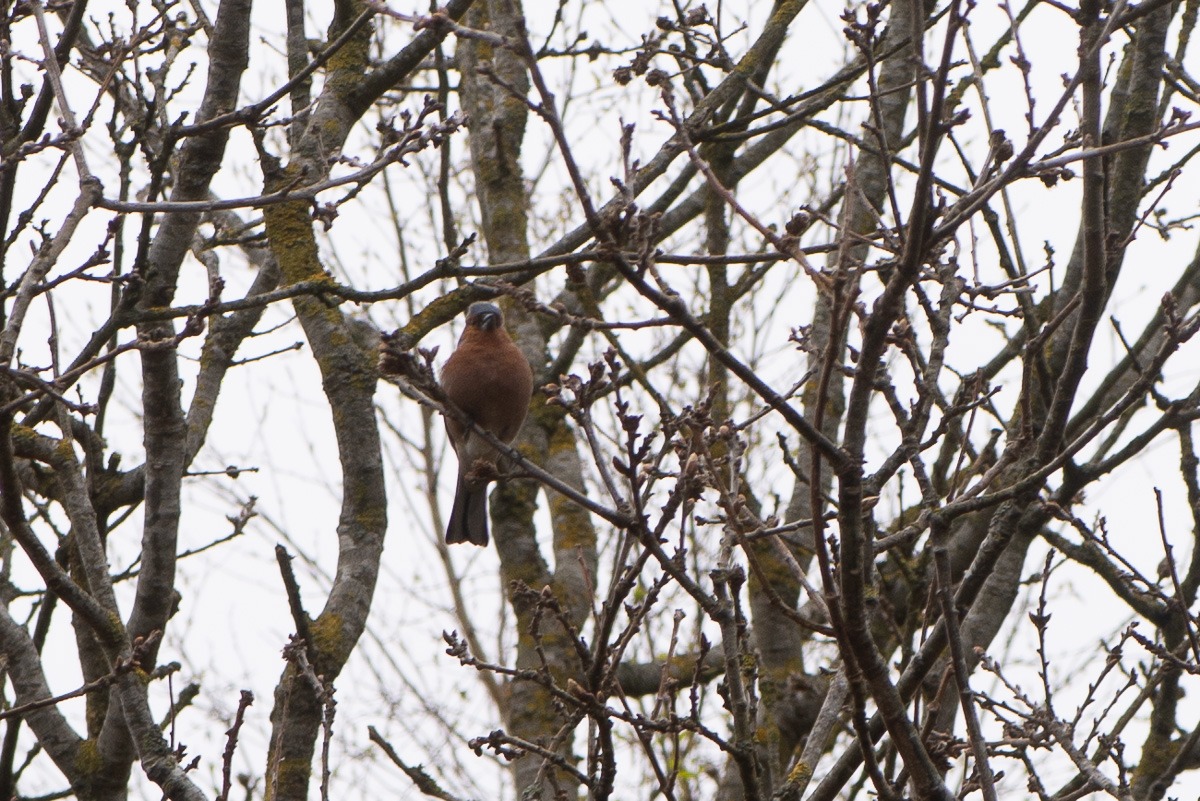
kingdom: Animalia
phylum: Chordata
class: Aves
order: Passeriformes
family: Fringillidae
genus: Fringilla
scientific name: Fringilla coelebs
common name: Bogfinke
